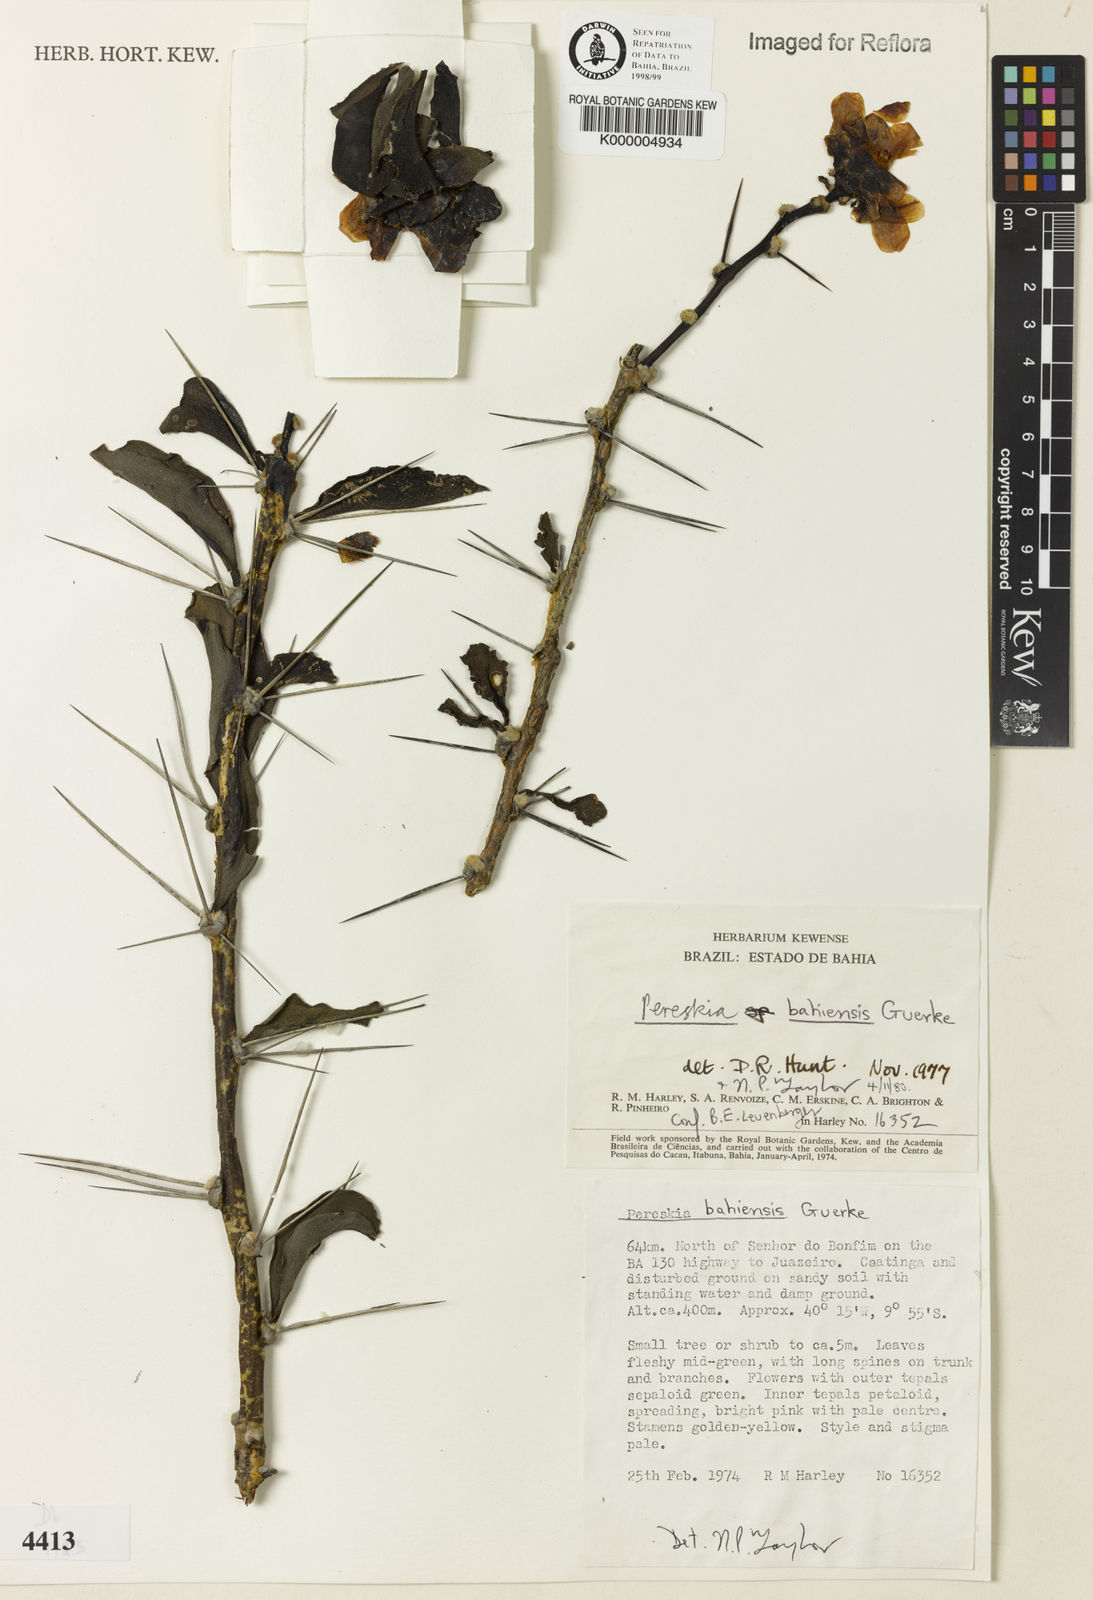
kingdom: Plantae
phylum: Tracheophyta
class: Magnoliopsida
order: Caryophyllales
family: Cactaceae
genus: Pereskia
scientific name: Pereskia
